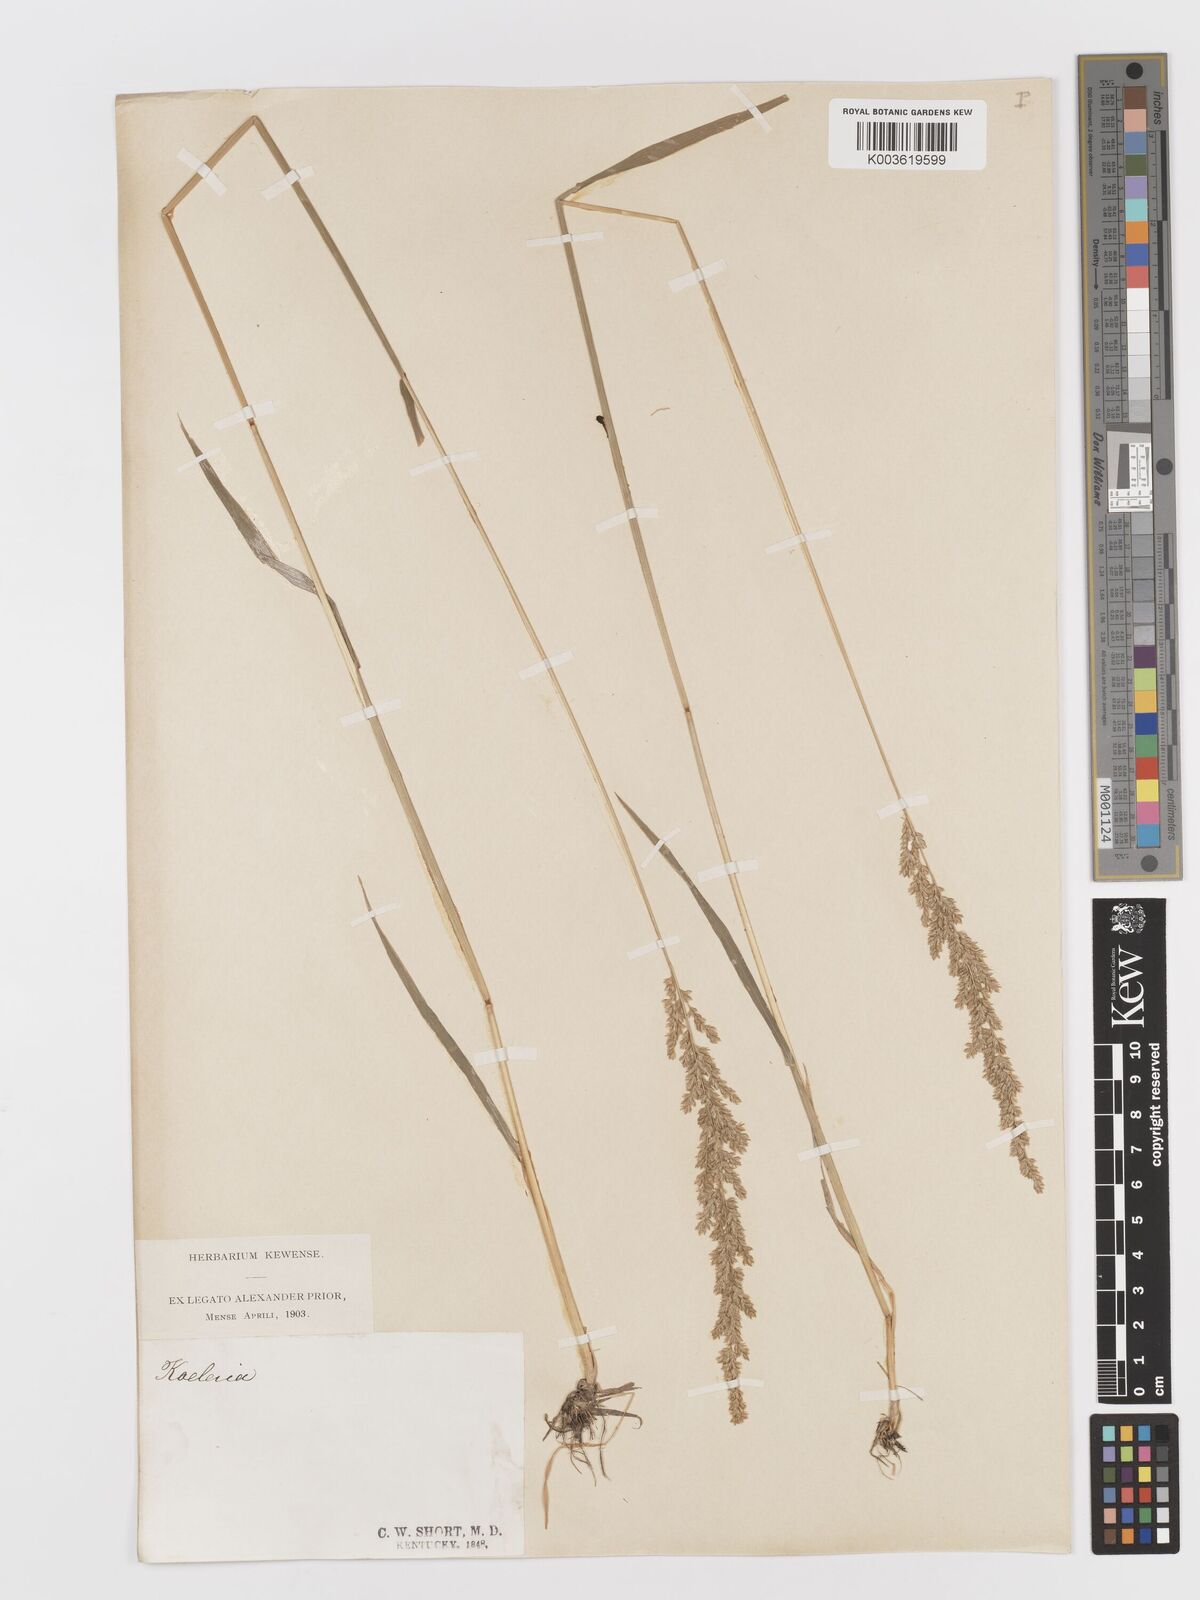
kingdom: Plantae
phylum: Tracheophyta
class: Liliopsida
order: Poales
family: Poaceae
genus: Sphenopholis
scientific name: Sphenopholis obtusata
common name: Prairie grass
